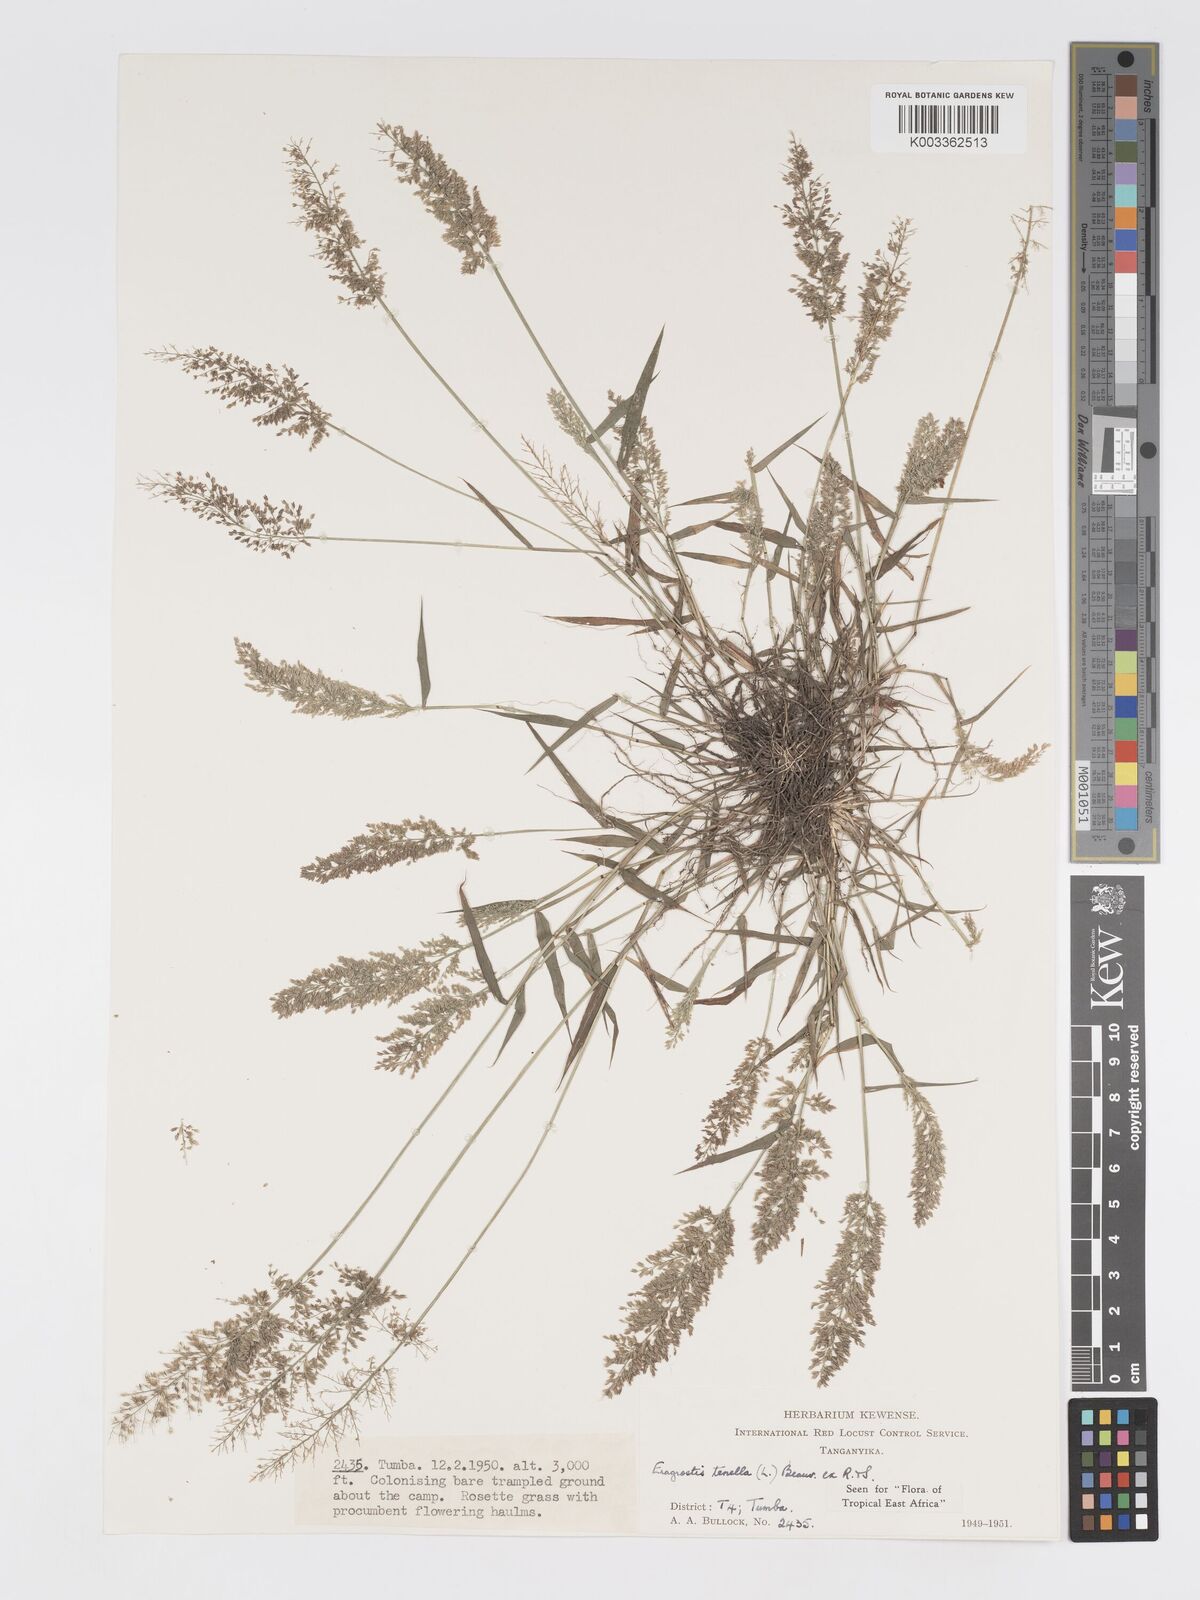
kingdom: Plantae
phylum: Tracheophyta
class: Liliopsida
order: Poales
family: Poaceae
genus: Eragrostis
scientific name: Eragrostis tenella
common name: Japanese lovegrass
